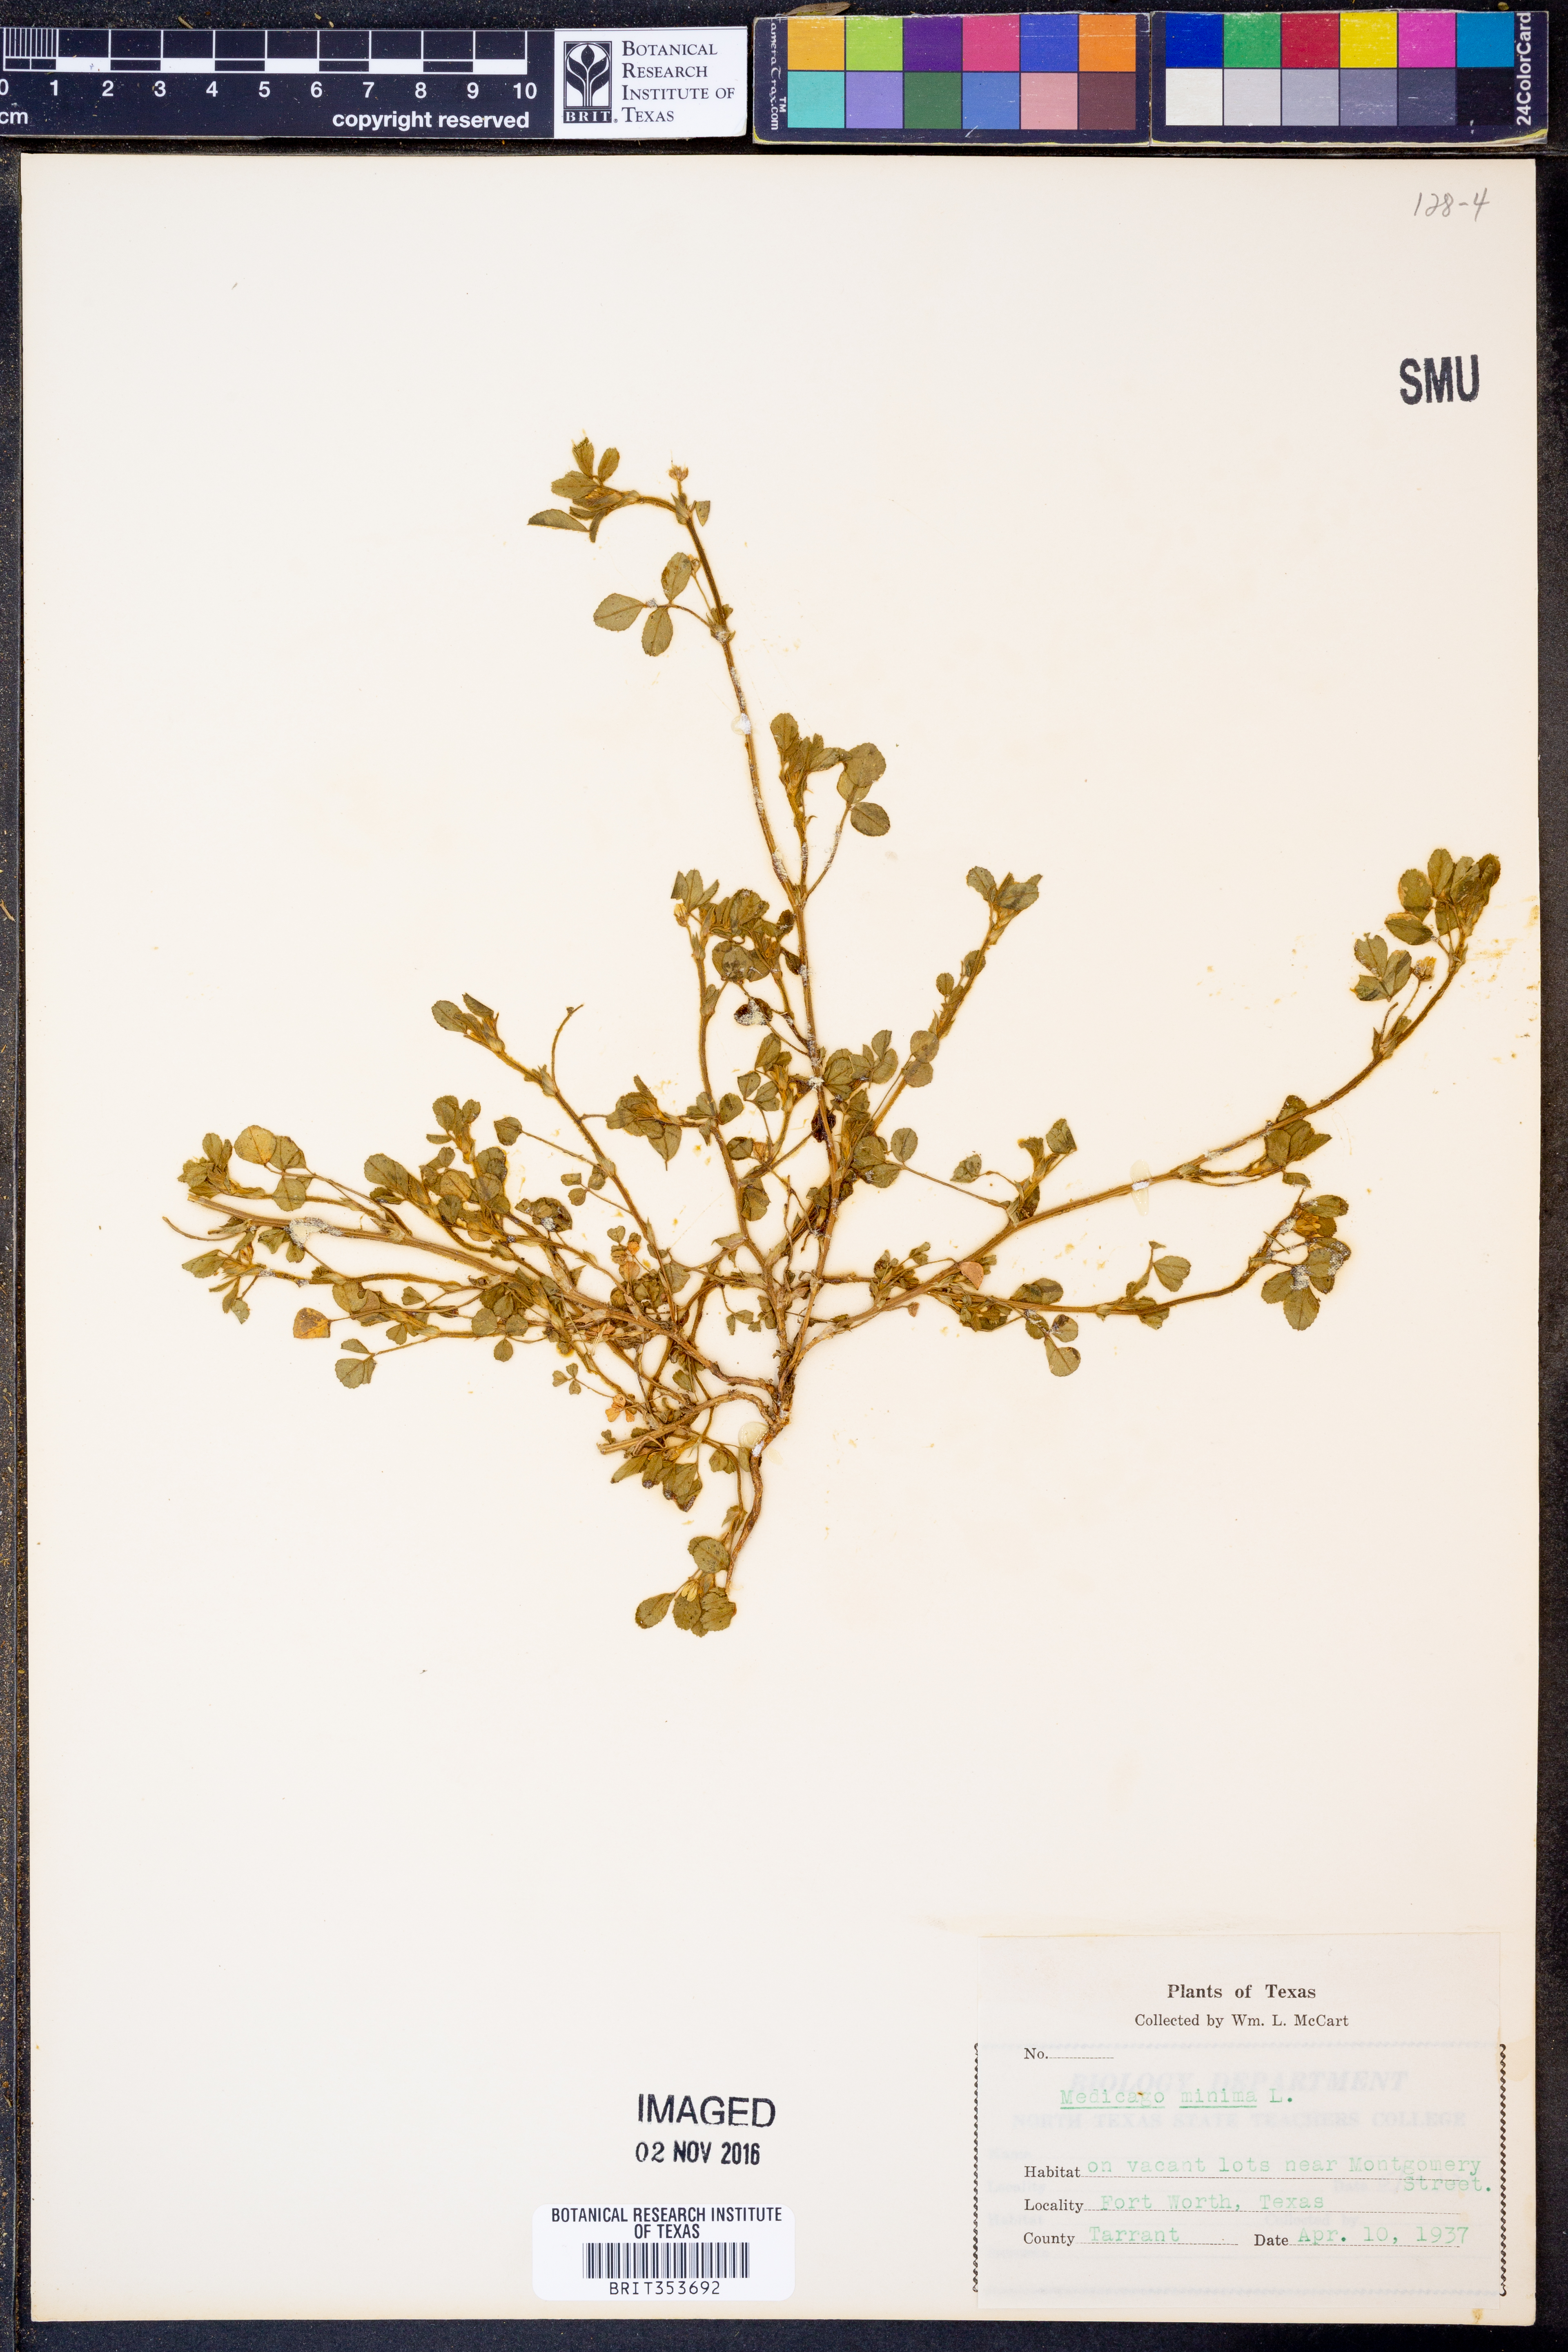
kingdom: Plantae
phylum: Tracheophyta
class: Magnoliopsida
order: Fabales
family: Fabaceae
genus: Medicago
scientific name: Medicago minima
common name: Little bur-clover
